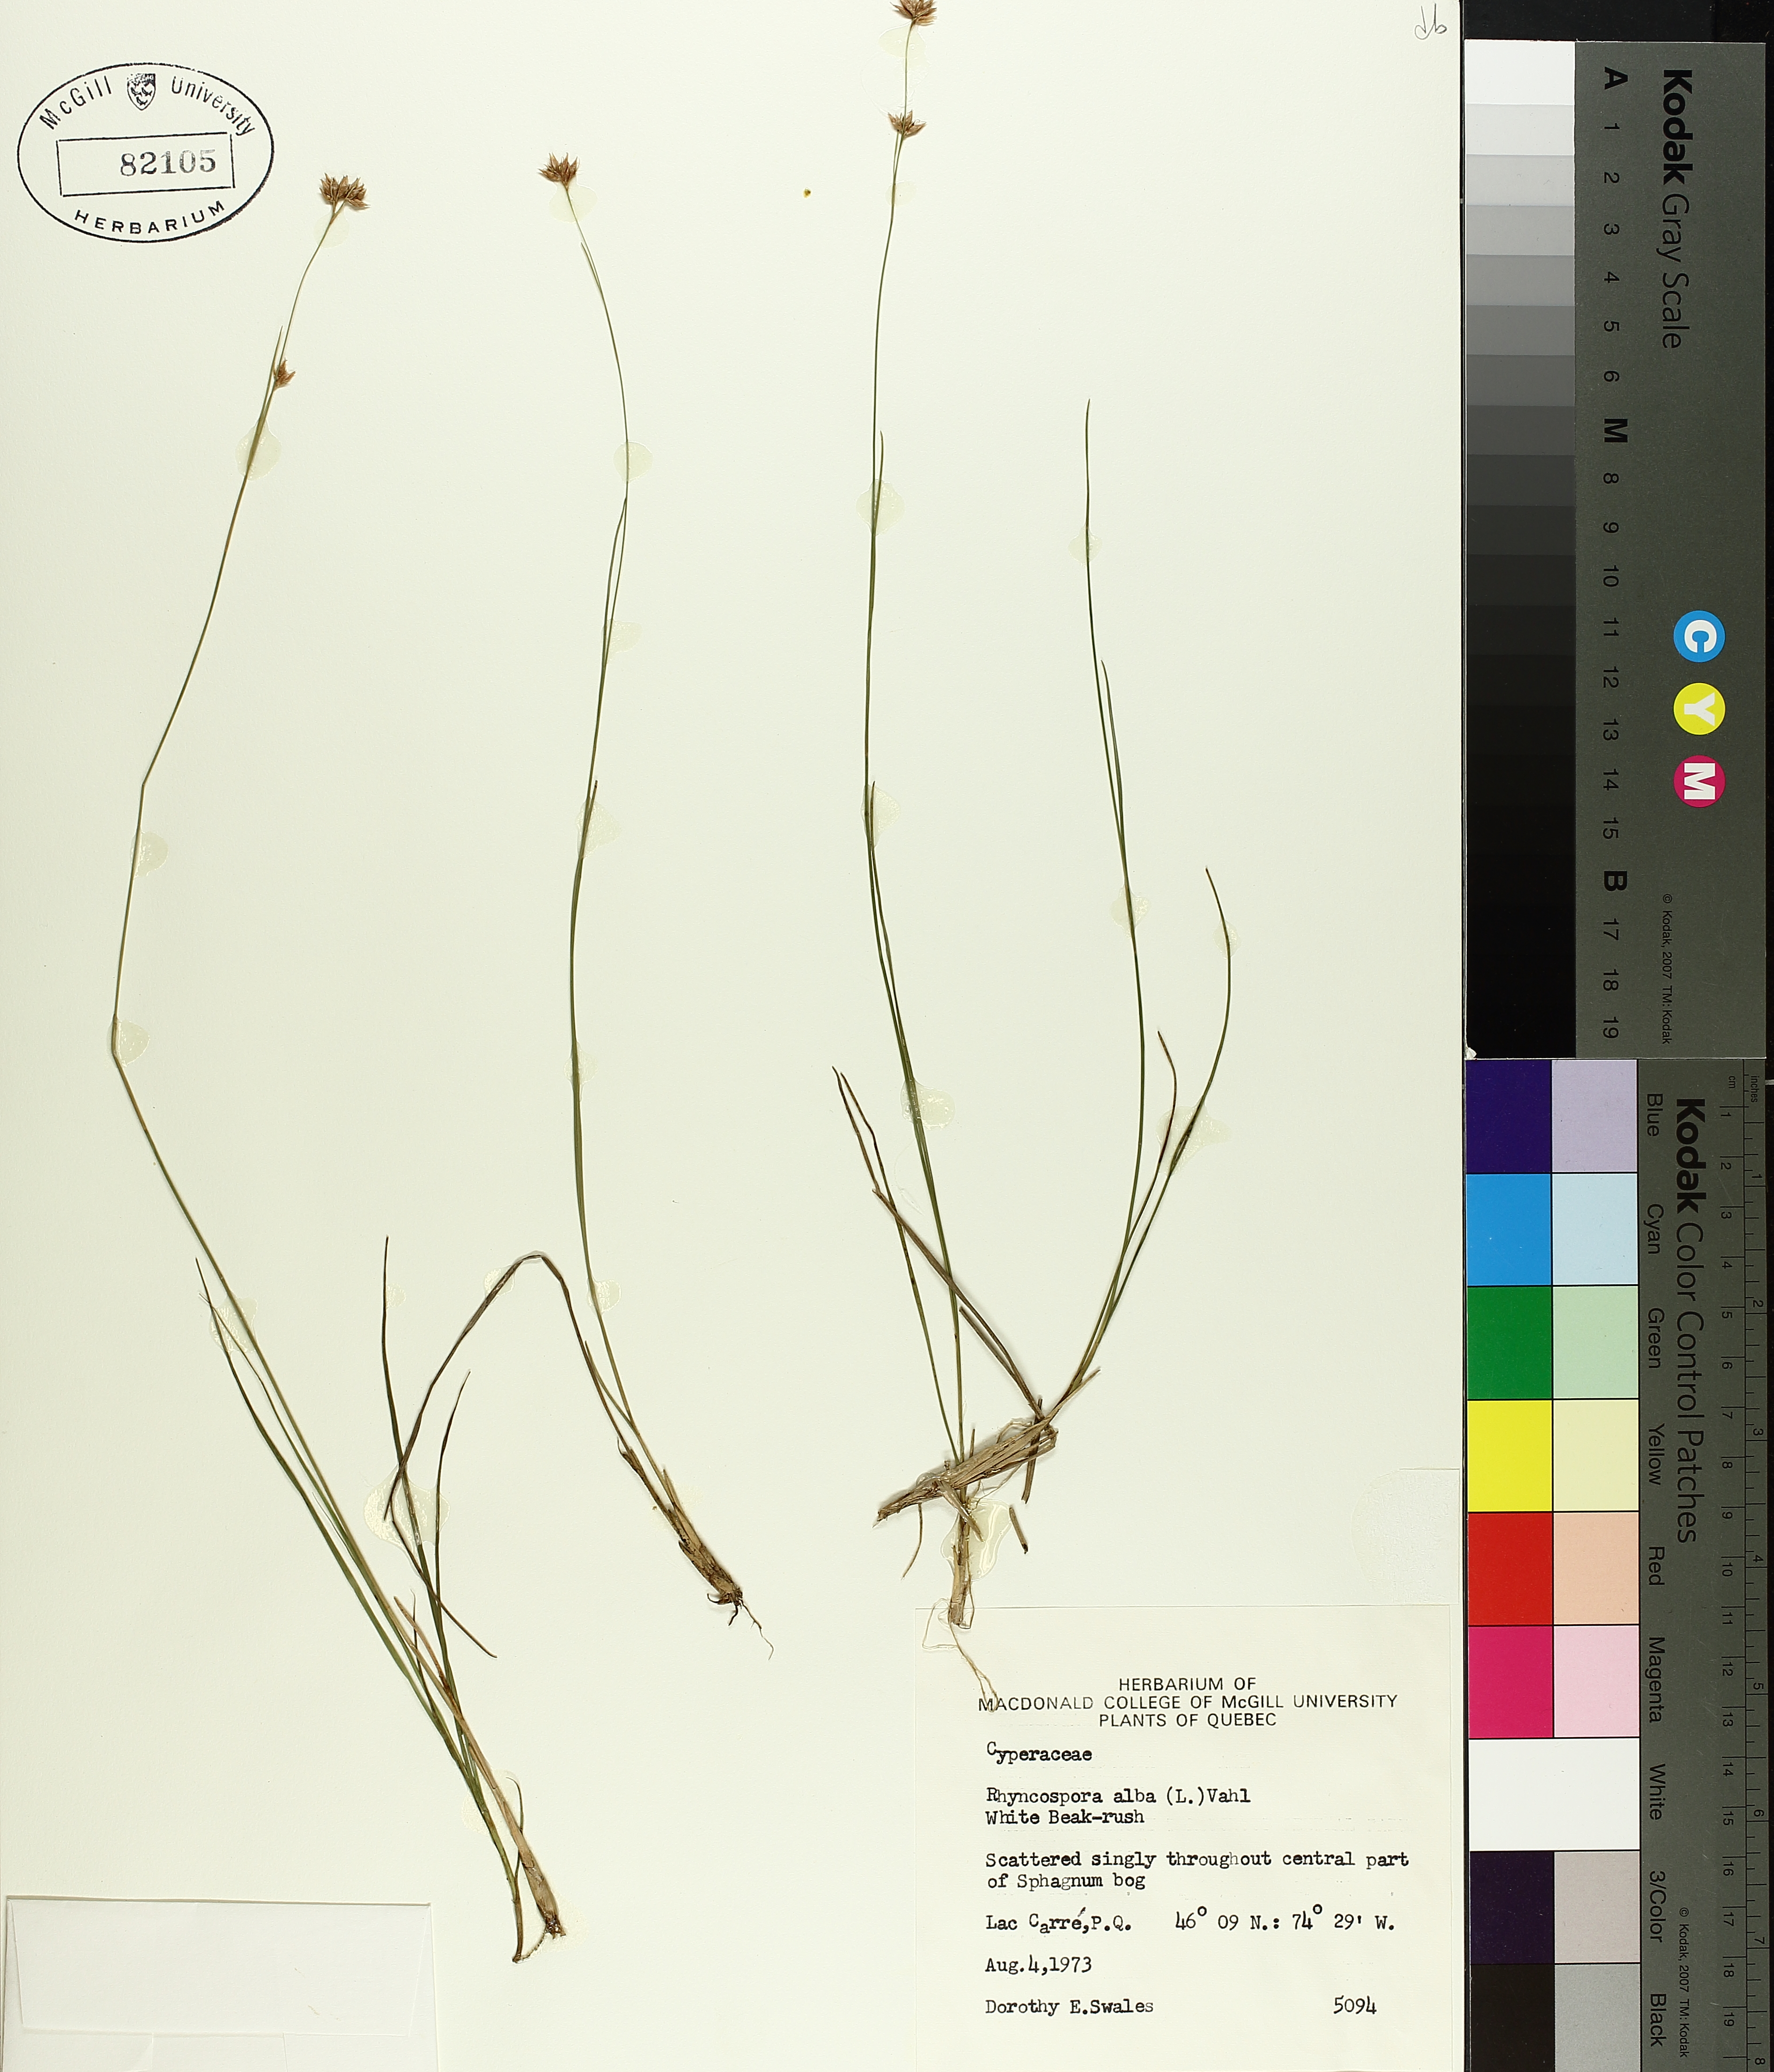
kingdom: Plantae
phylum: Tracheophyta
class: Liliopsida
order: Poales
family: Cyperaceae
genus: Rhynchospora
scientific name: Rhynchospora alba
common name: White beak-sedge
